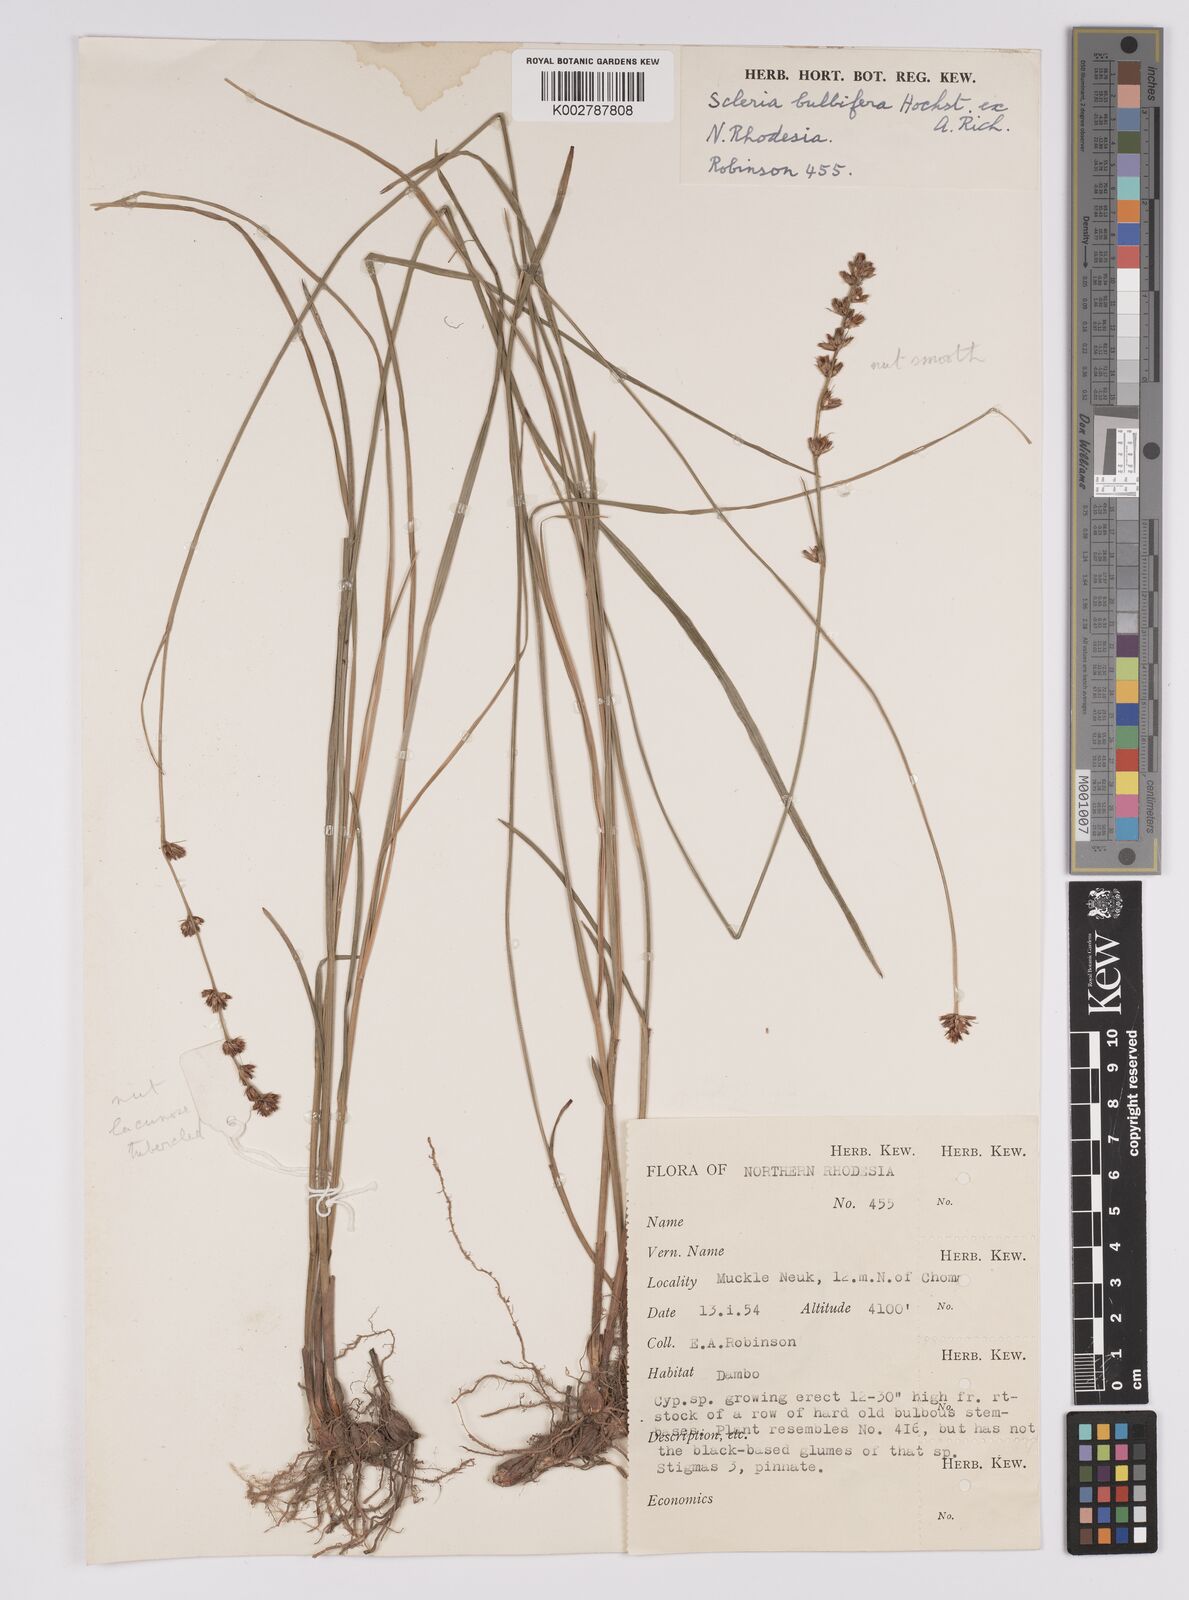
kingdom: Plantae
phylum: Tracheophyta
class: Liliopsida
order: Poales
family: Cyperaceae
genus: Scleria
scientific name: Scleria bulbifera
